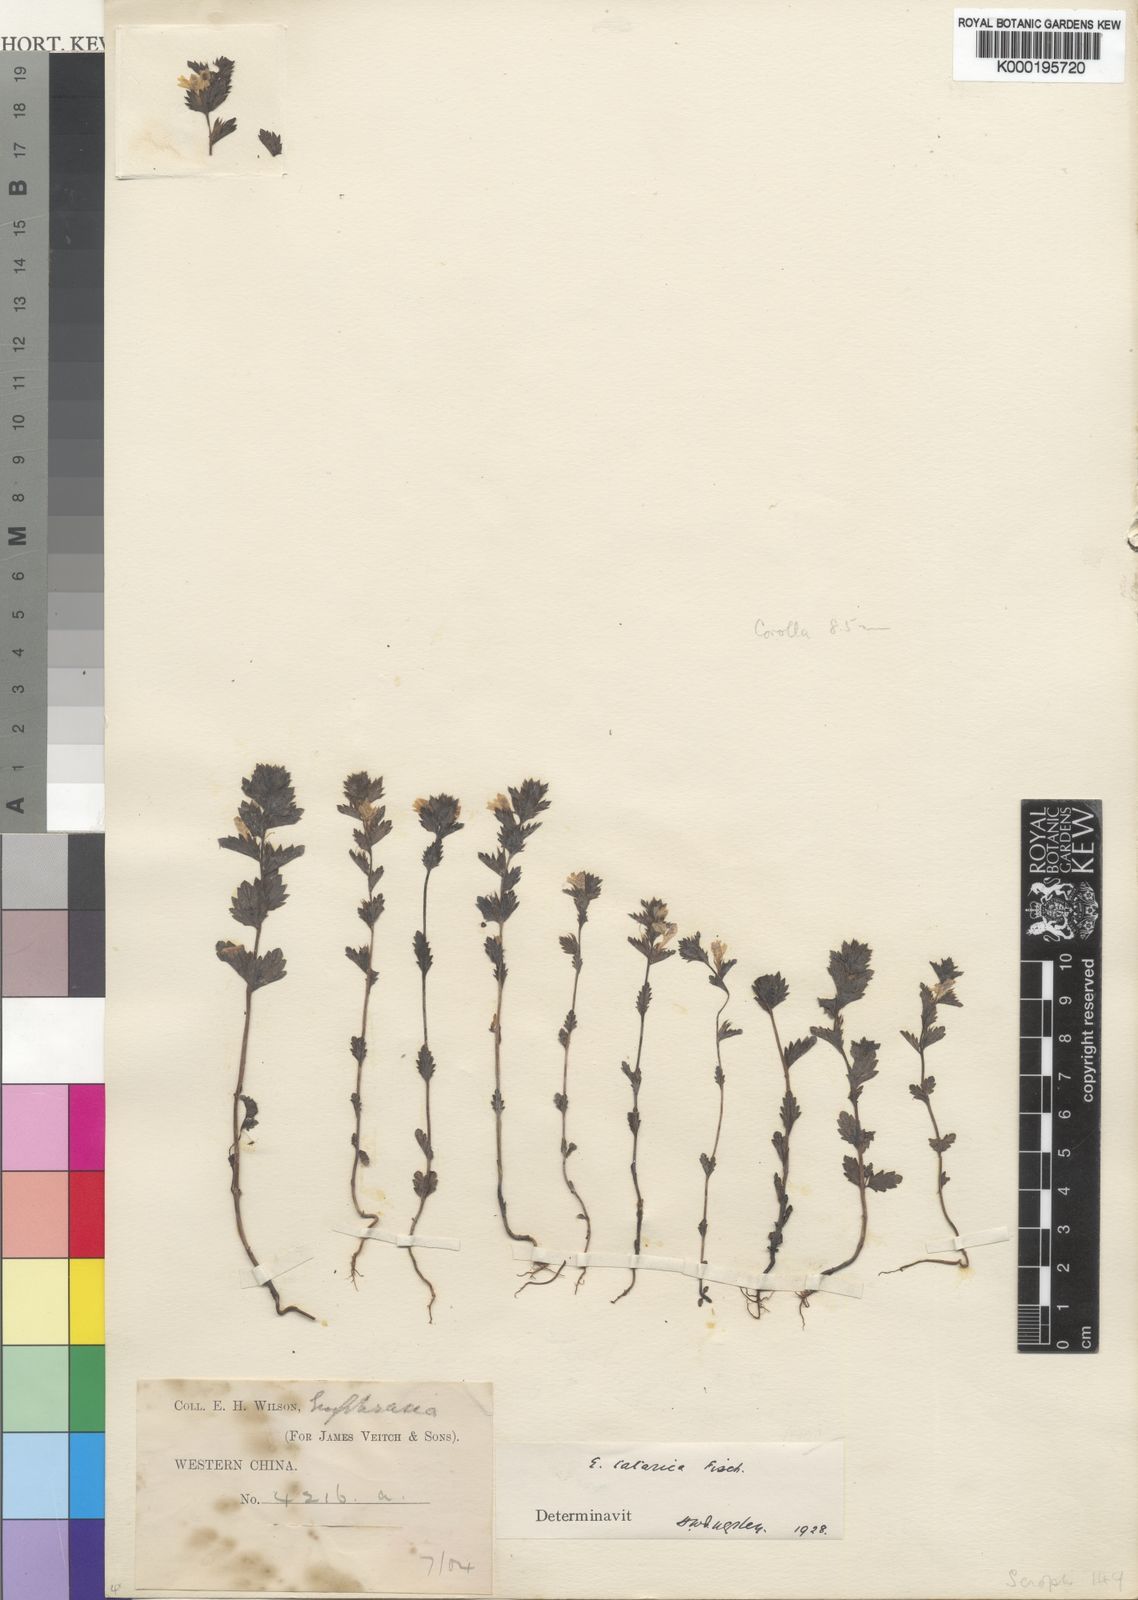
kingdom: Plantae
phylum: Tracheophyta
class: Magnoliopsida
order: Lamiales
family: Orobanchaceae
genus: Euphrasia
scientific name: Euphrasia
